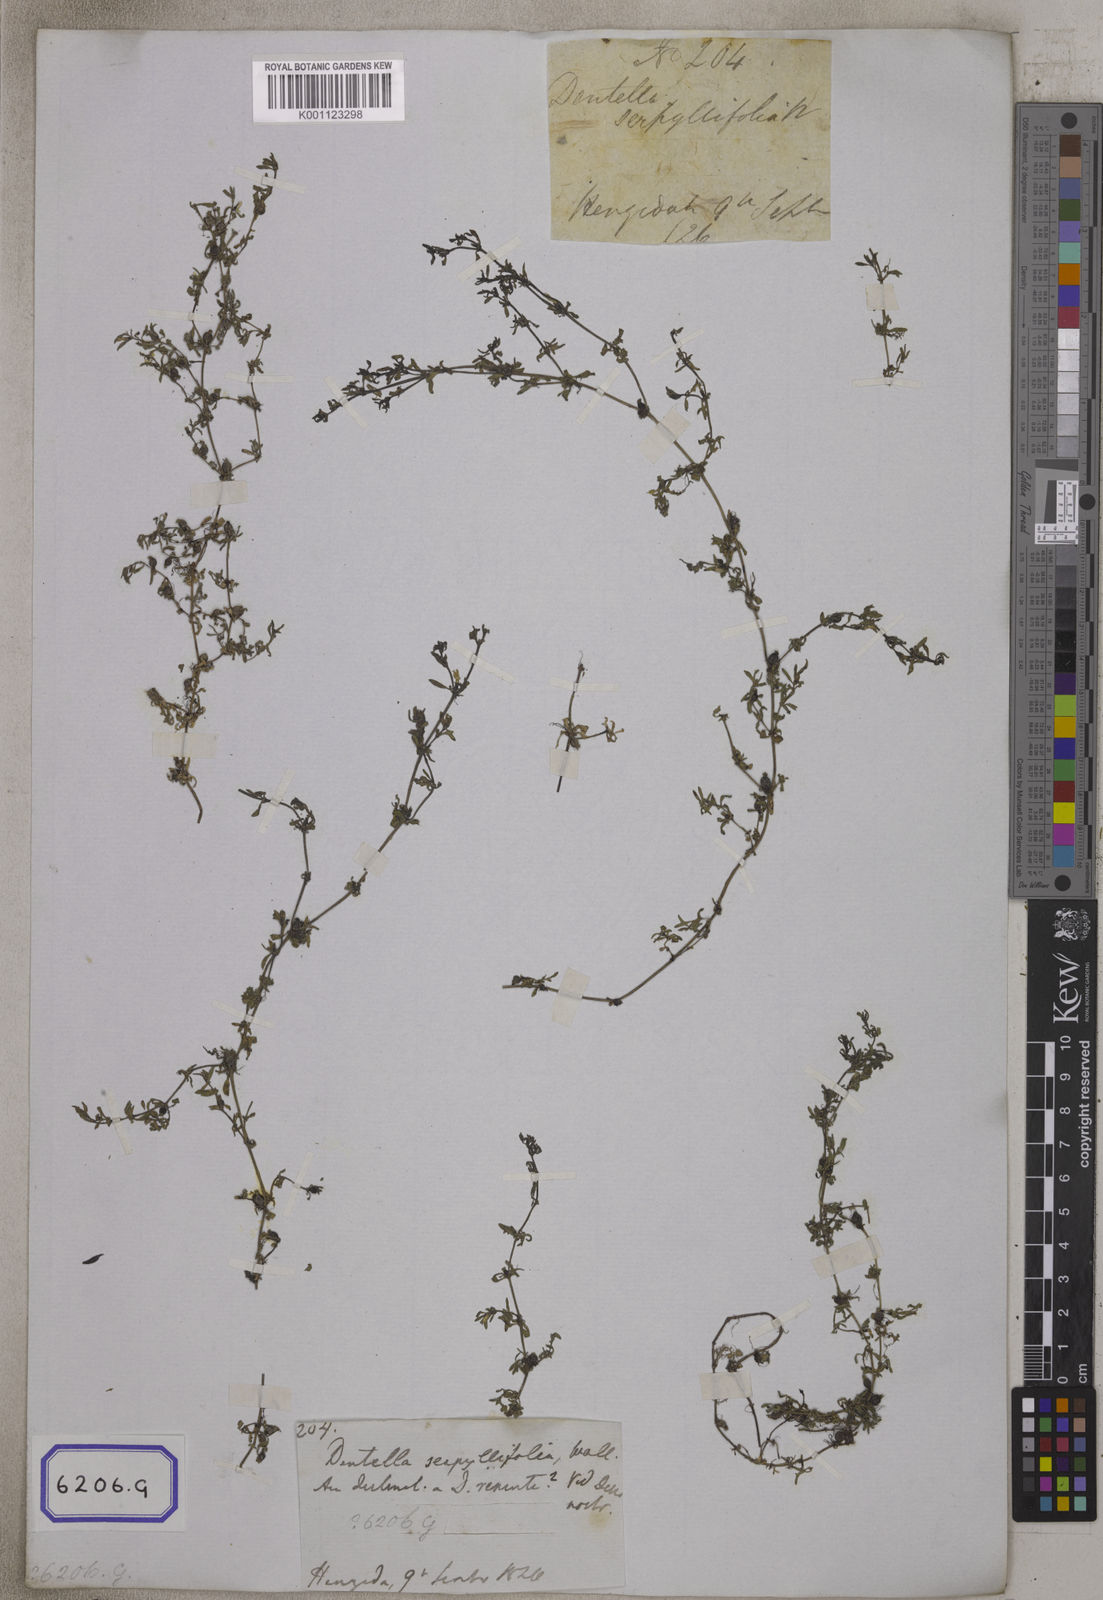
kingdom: Plantae
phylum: Tracheophyta
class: Magnoliopsida
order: Gentianales
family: Rubiaceae
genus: Dentella
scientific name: Dentella repens
